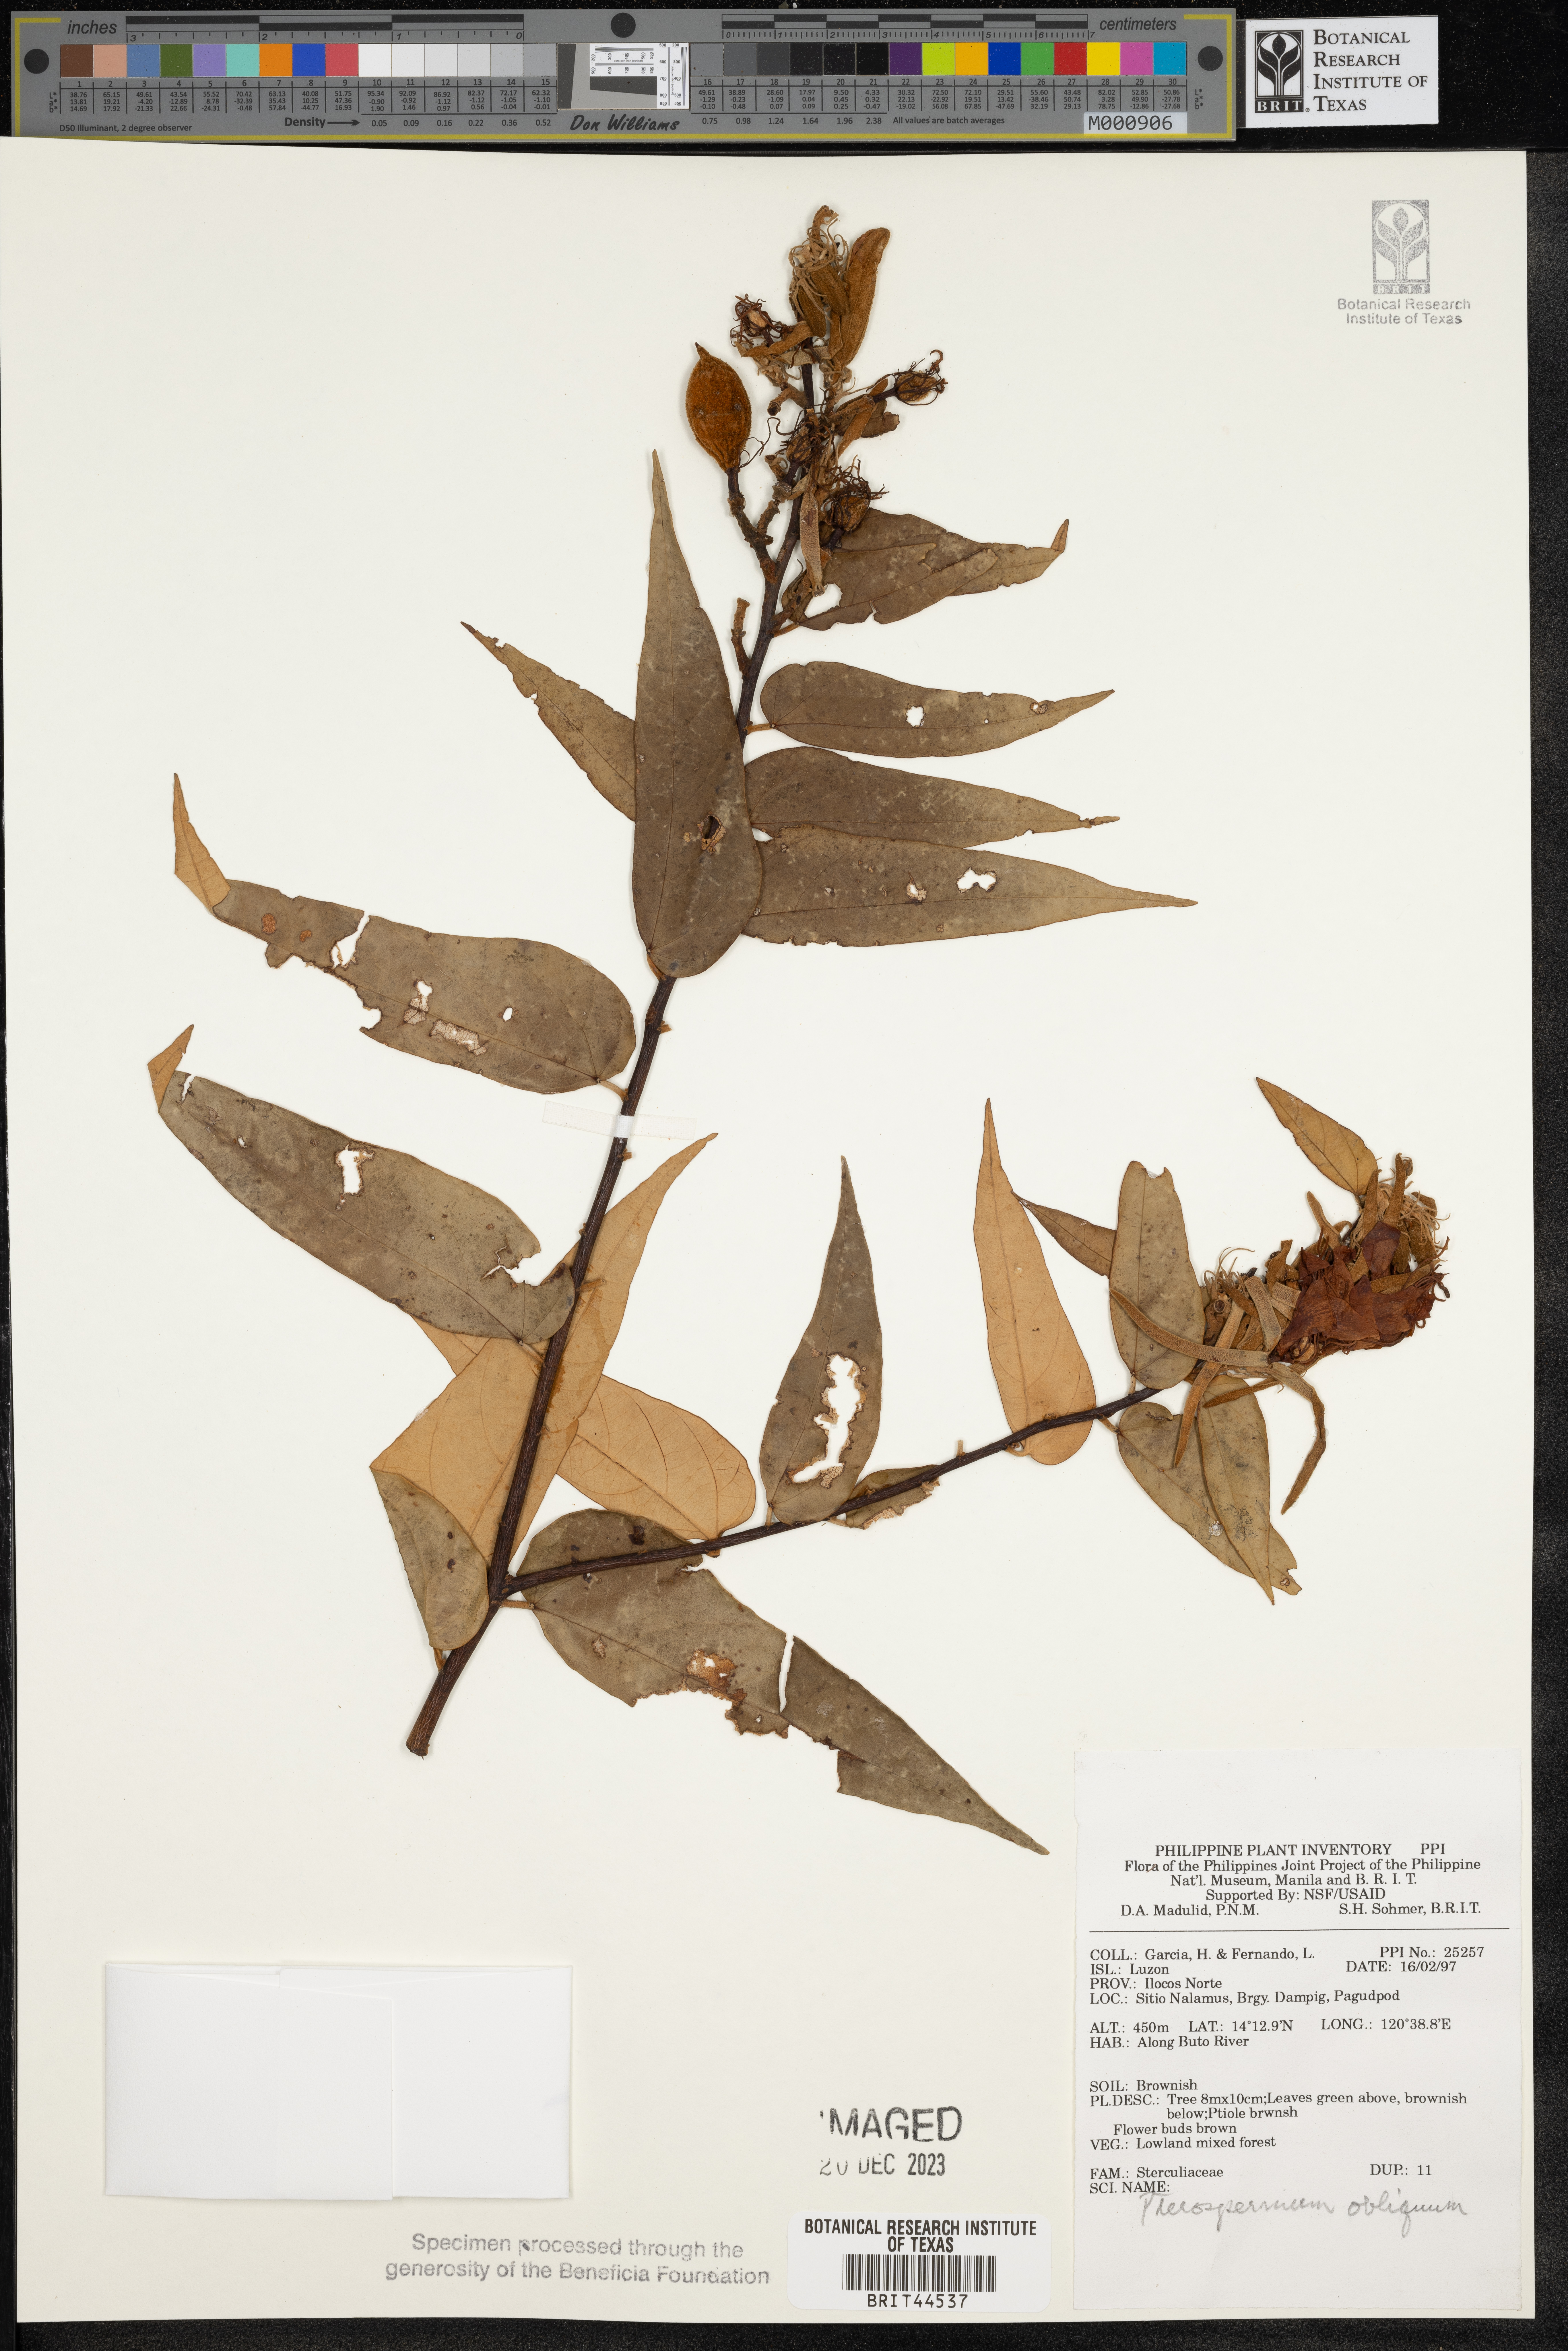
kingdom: Plantae
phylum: Tracheophyta
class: Magnoliopsida
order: Malvales
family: Malvaceae
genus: Pterospermum
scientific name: Pterospermum obliquum
